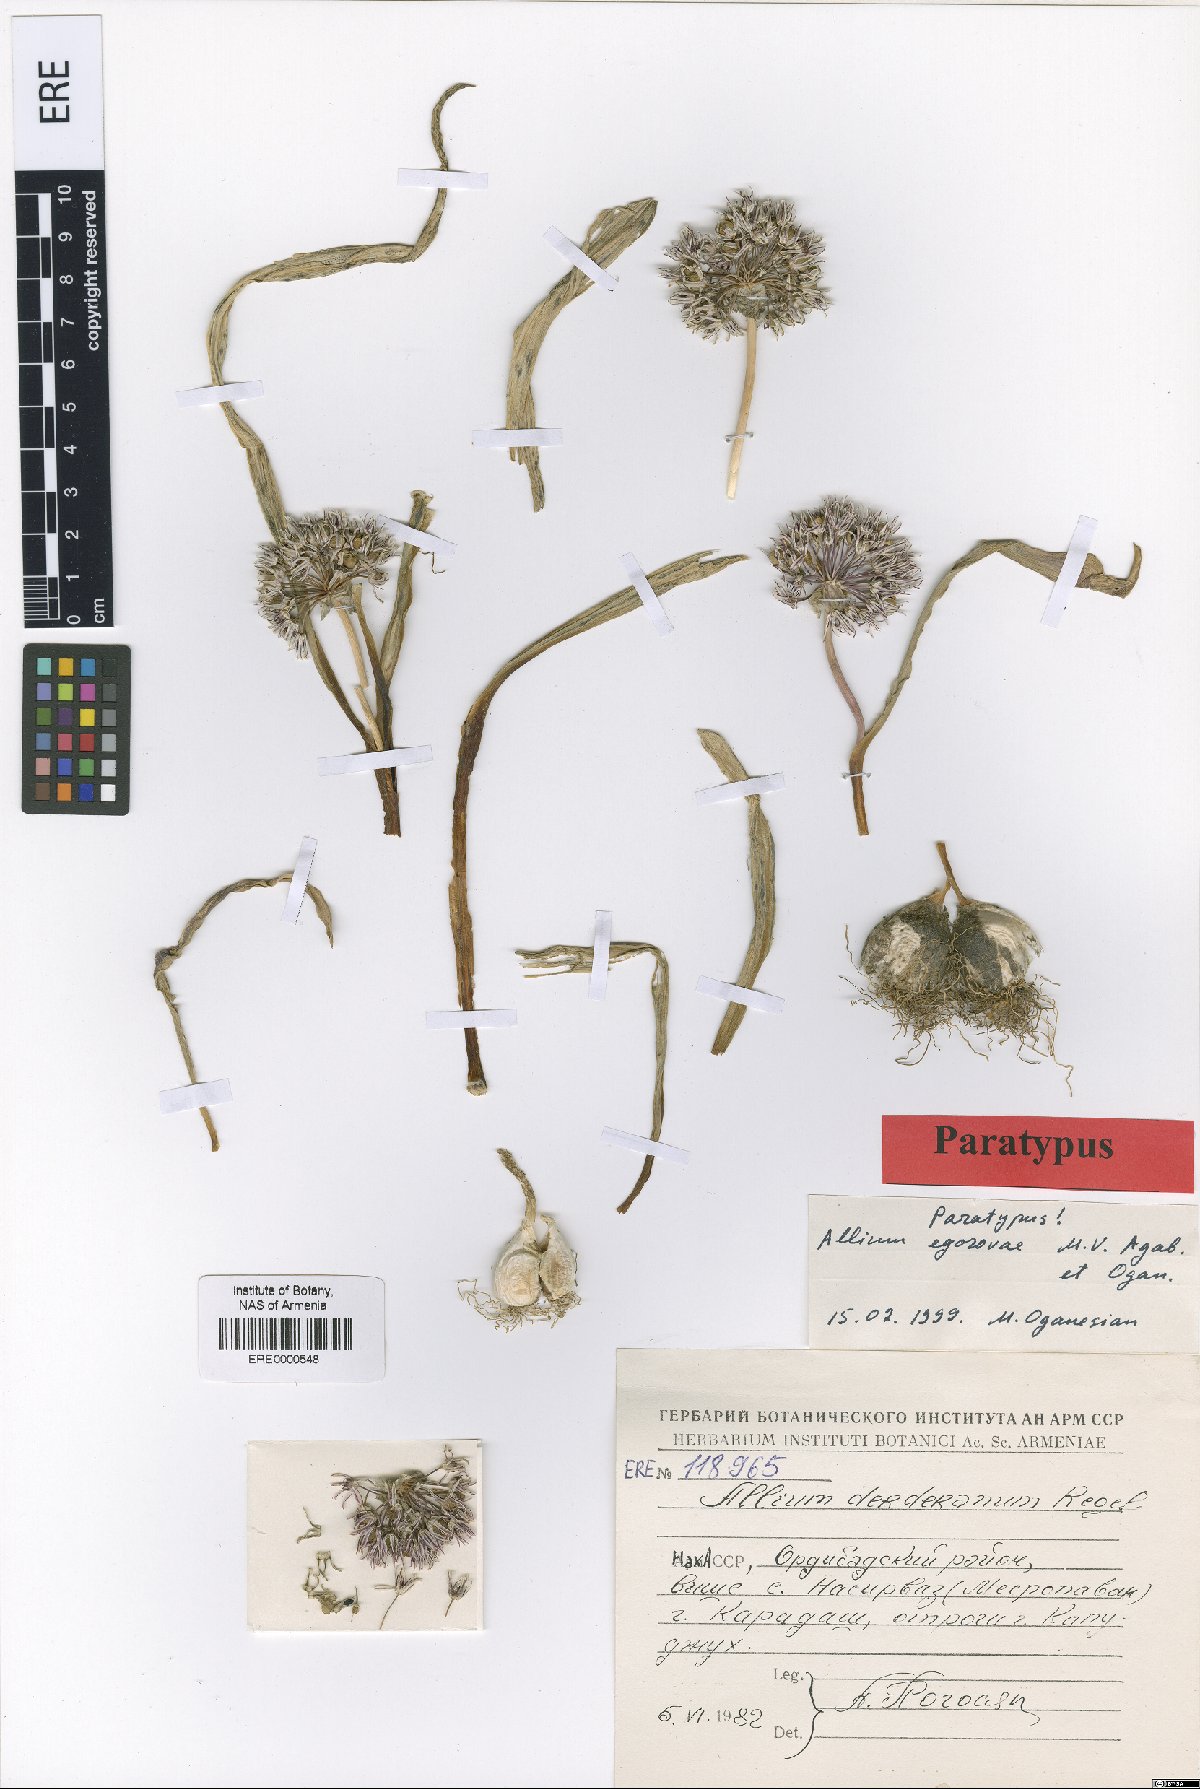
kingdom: Plantae
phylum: Tracheophyta
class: Liliopsida
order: Asparagales
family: Amaryllidaceae
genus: Allium
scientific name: Allium egorovae
